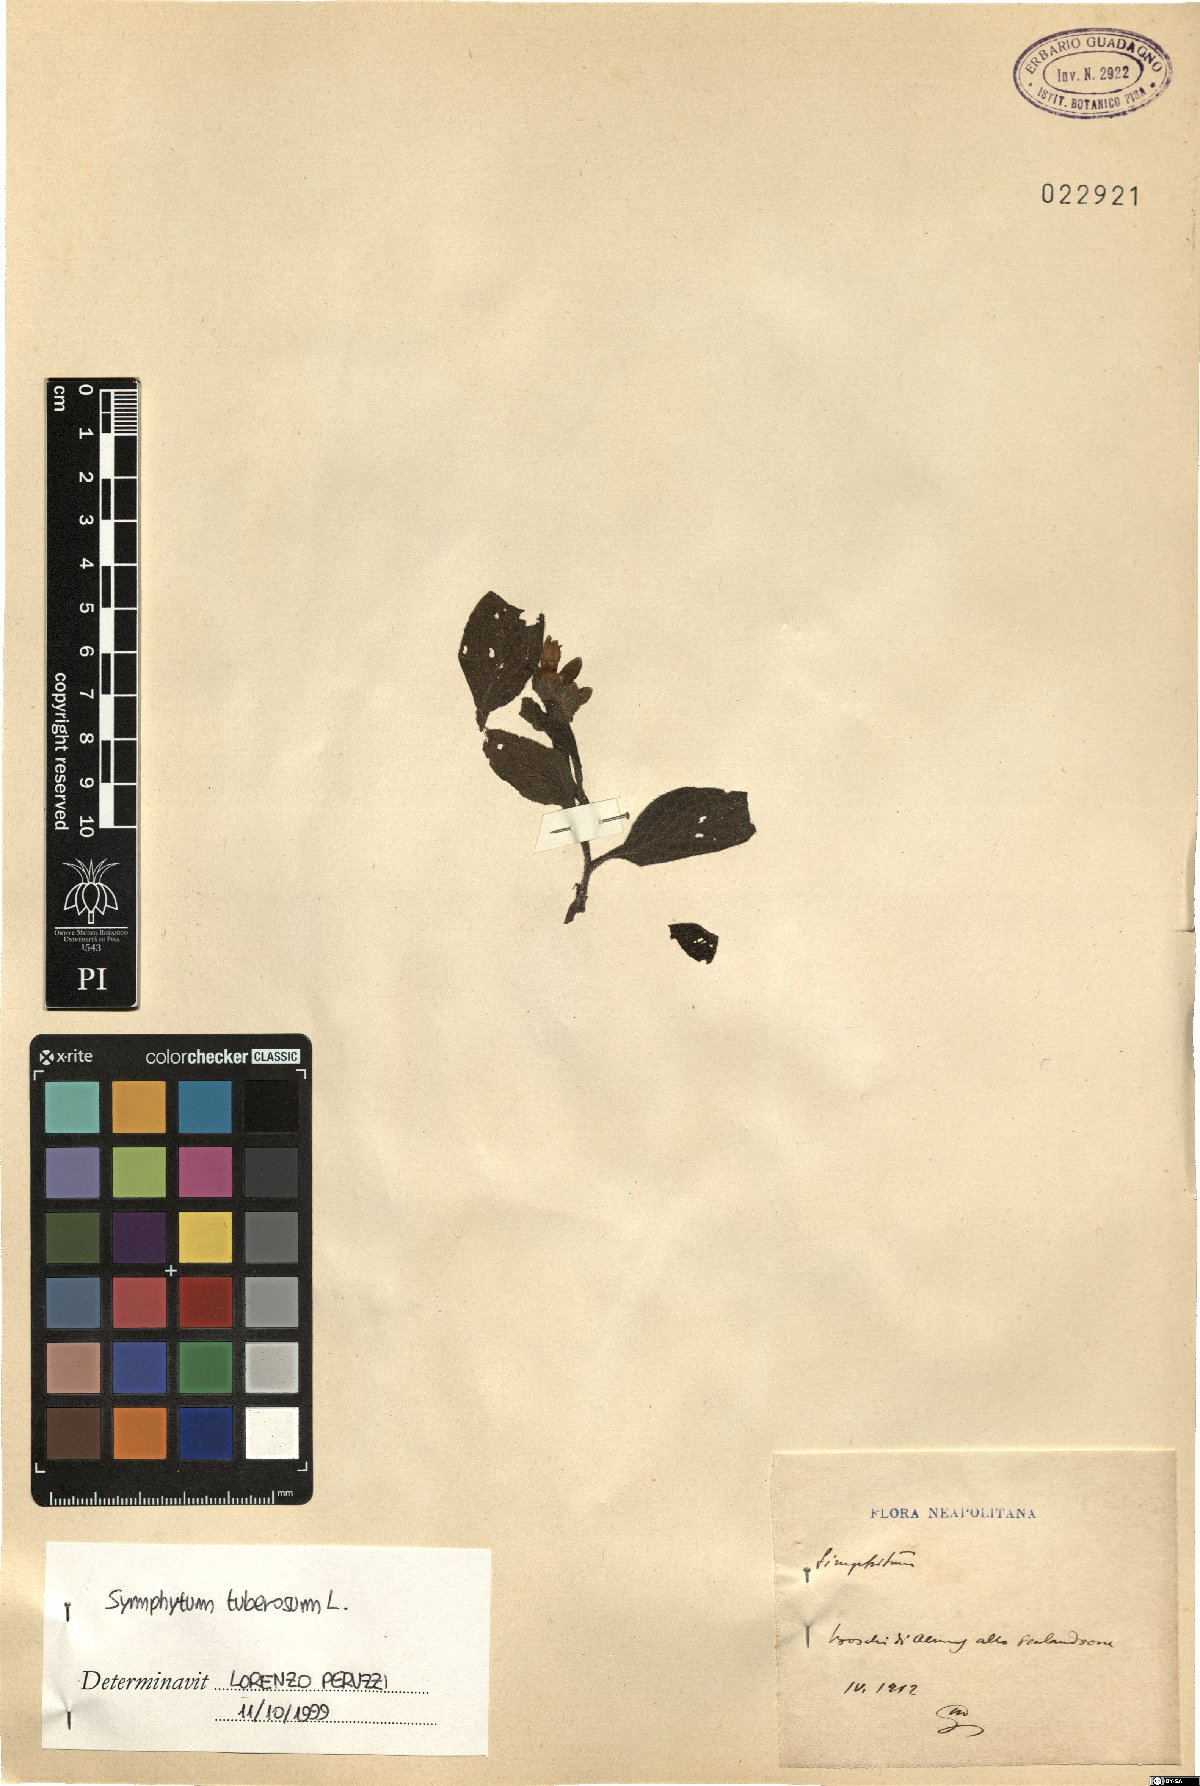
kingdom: Plantae
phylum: Tracheophyta
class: Magnoliopsida
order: Boraginales
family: Boraginaceae
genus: Symphytum
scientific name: Symphytum tuberosum
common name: Tuberous comfrey
